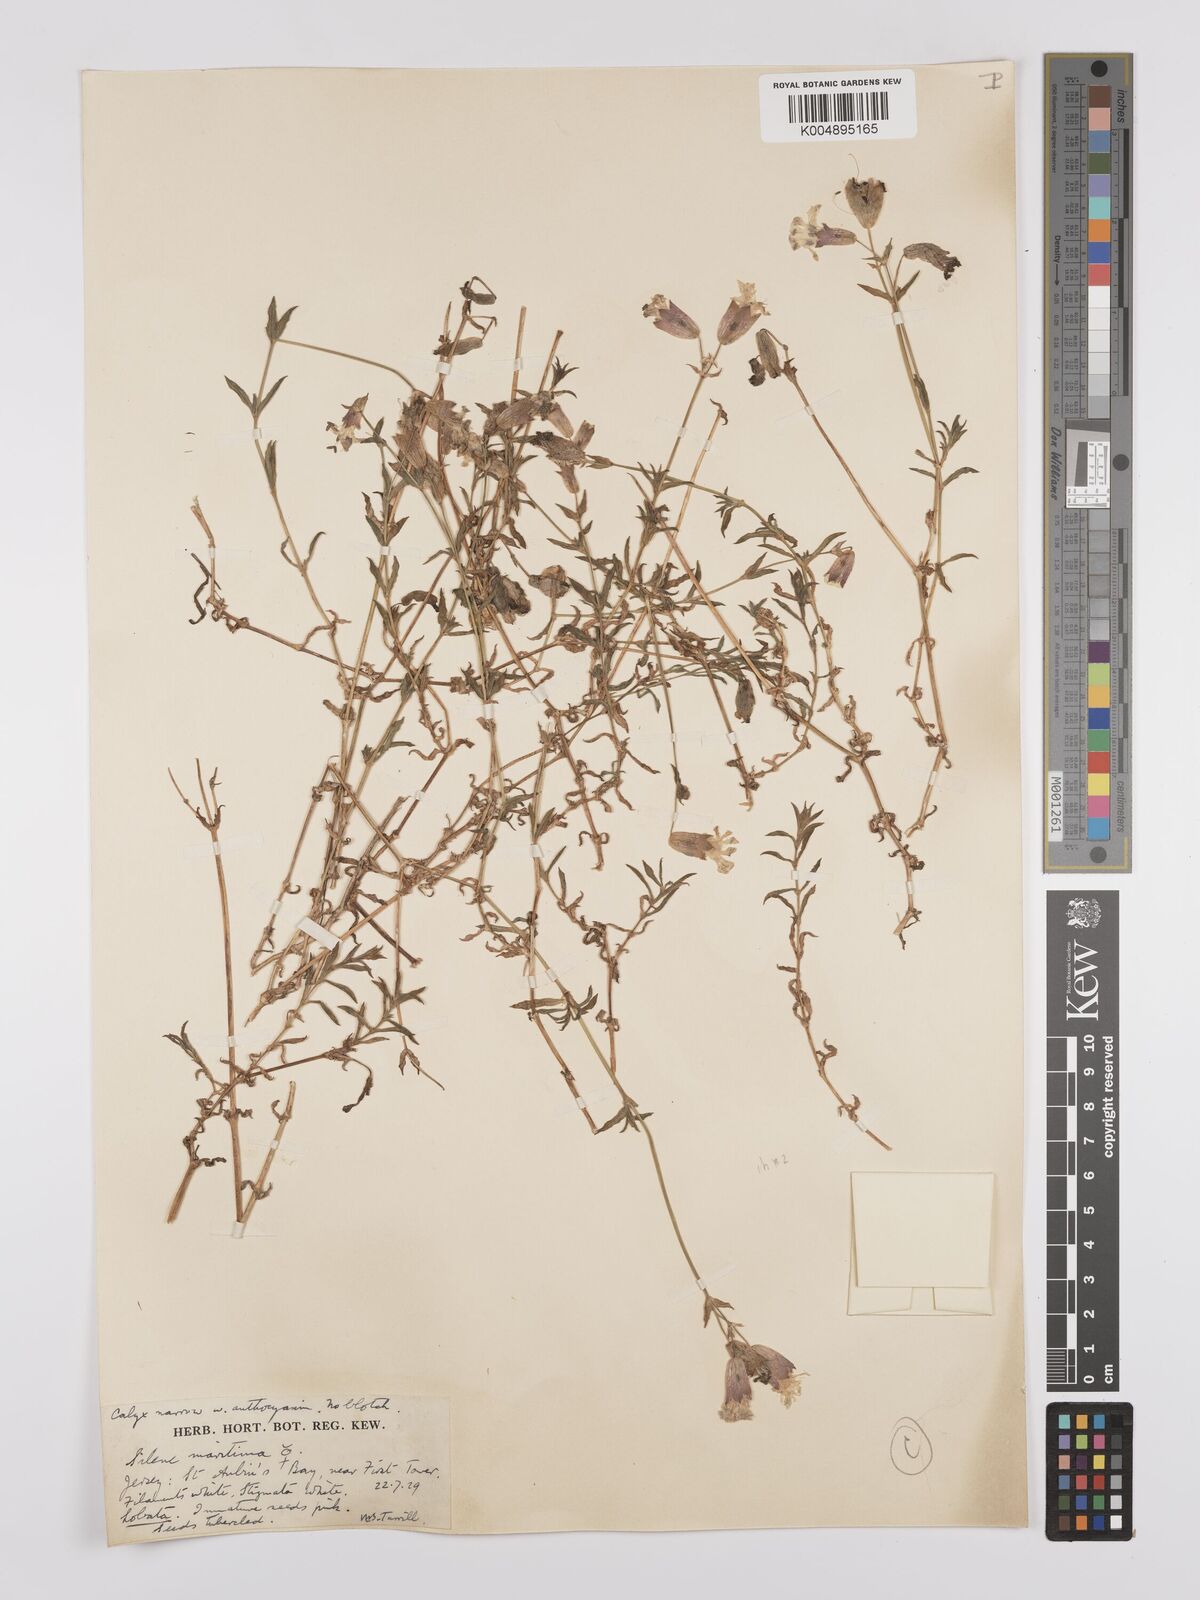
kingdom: Plantae
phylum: Tracheophyta
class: Magnoliopsida
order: Caryophyllales
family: Caryophyllaceae
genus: Silene
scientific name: Silene uniflora
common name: Sea campion
